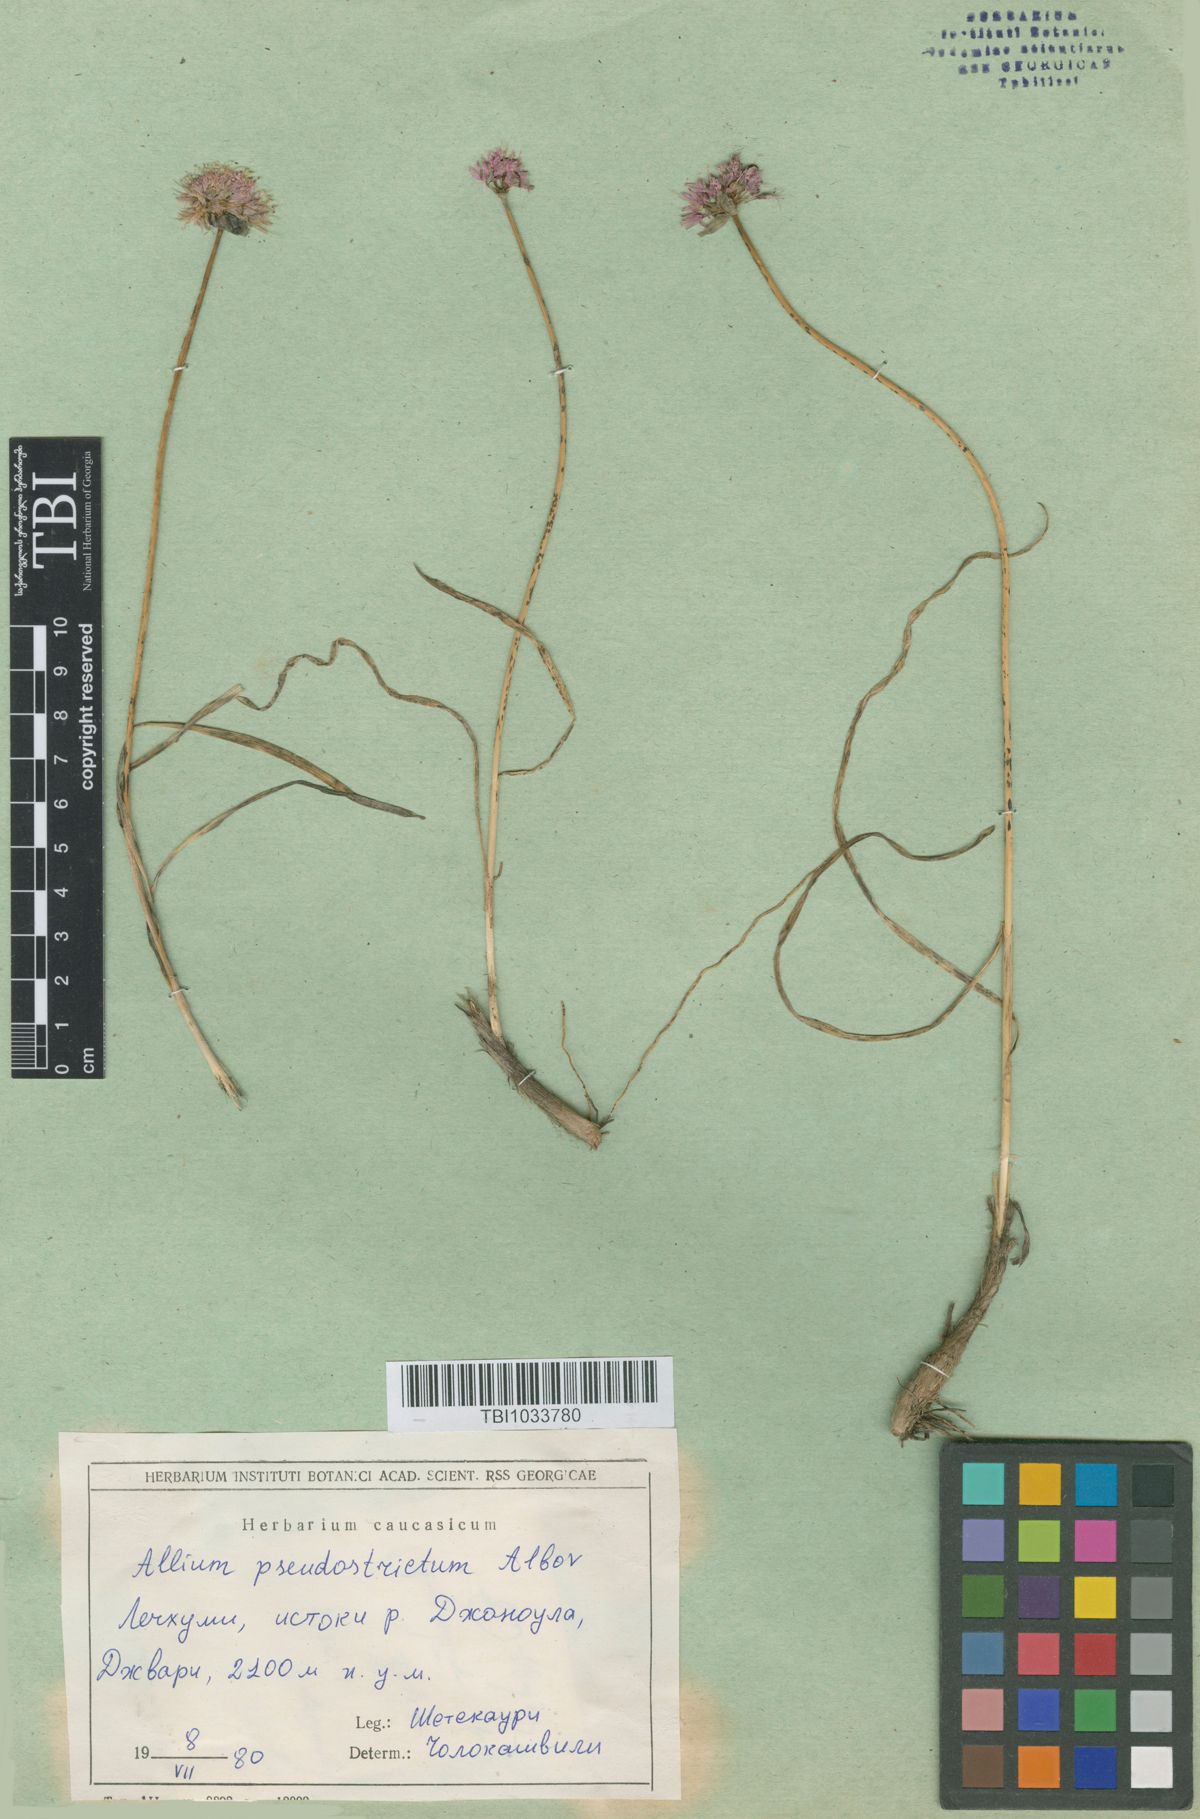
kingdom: Plantae
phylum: Tracheophyta
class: Liliopsida
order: Asparagales
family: Amaryllidaceae
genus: Allium
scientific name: Allium pseudostrictum
